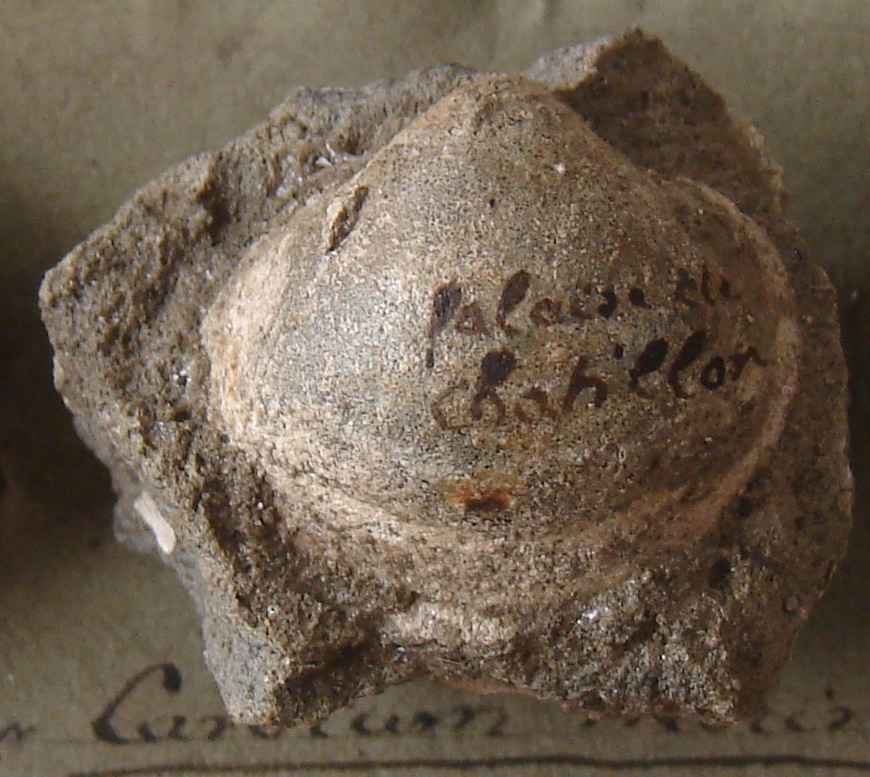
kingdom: Animalia
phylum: Mollusca
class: Bivalvia
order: Cardiida
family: Cardiidae
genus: Cardium
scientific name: Cardium morinicum
